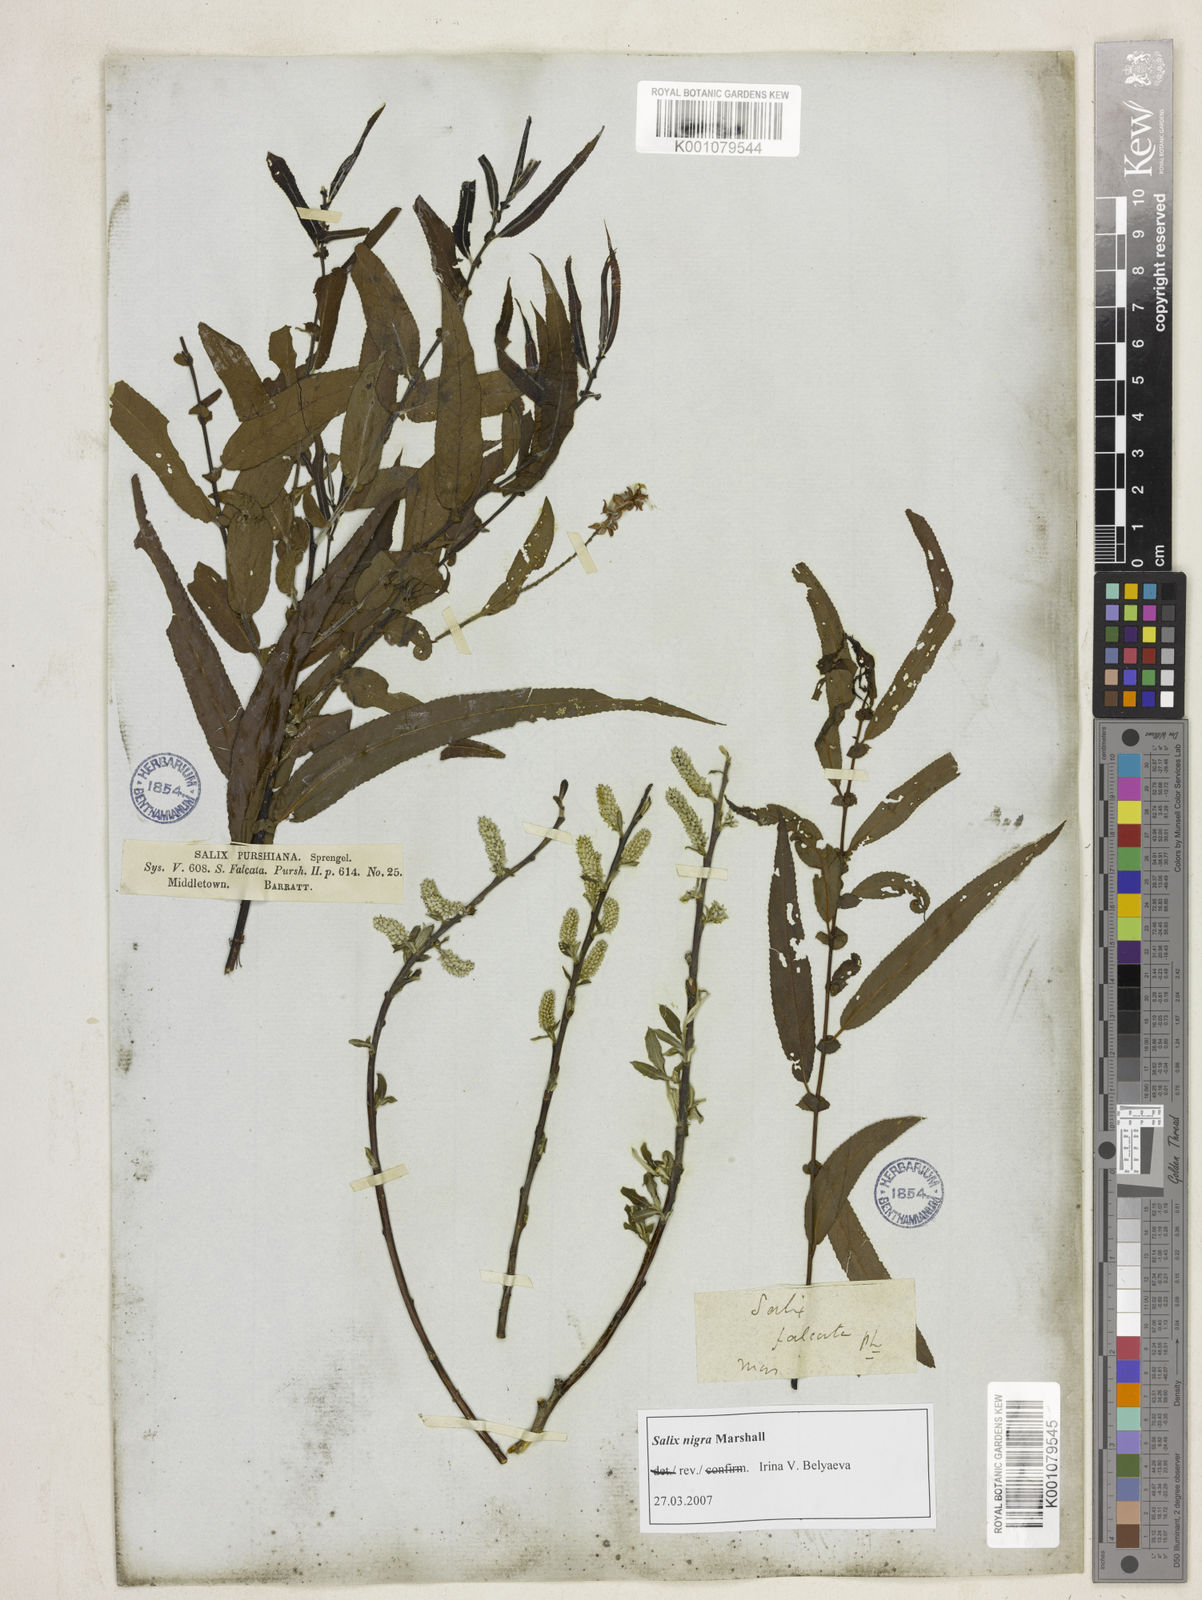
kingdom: Plantae
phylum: Tracheophyta
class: Magnoliopsida
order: Malpighiales
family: Salicaceae
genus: Salix
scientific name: Salix nigra
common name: Black willow
